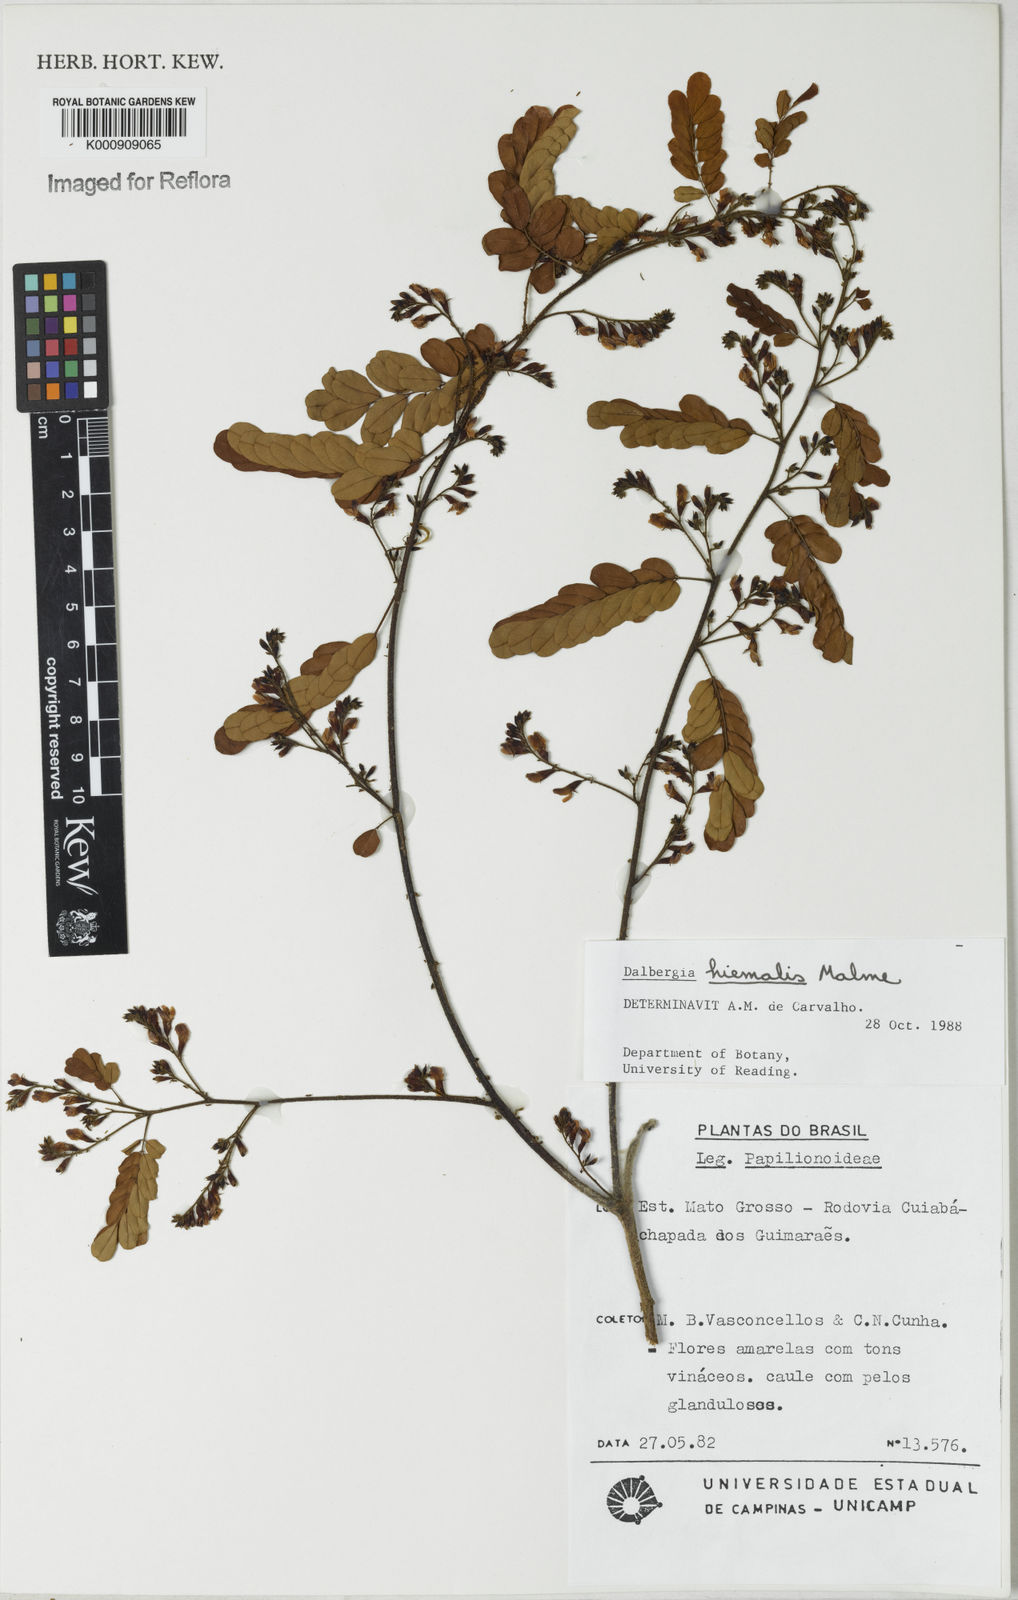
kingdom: Plantae
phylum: Tracheophyta
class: Magnoliopsida
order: Fabales
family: Fabaceae
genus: Dalbergia
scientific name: Dalbergia hiemalis
